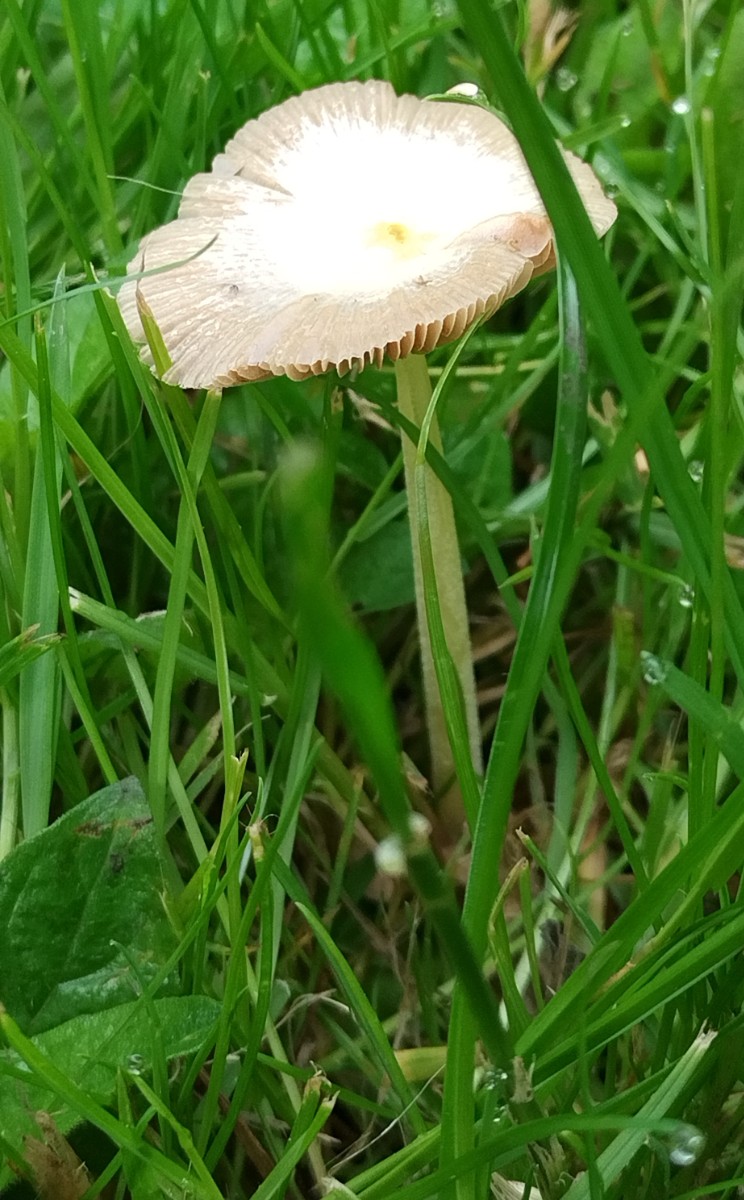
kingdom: Fungi
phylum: Basidiomycota
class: Agaricomycetes
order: Agaricales
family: Bolbitiaceae
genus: Bolbitius
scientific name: Bolbitius titubans
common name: almindelig gulhat
